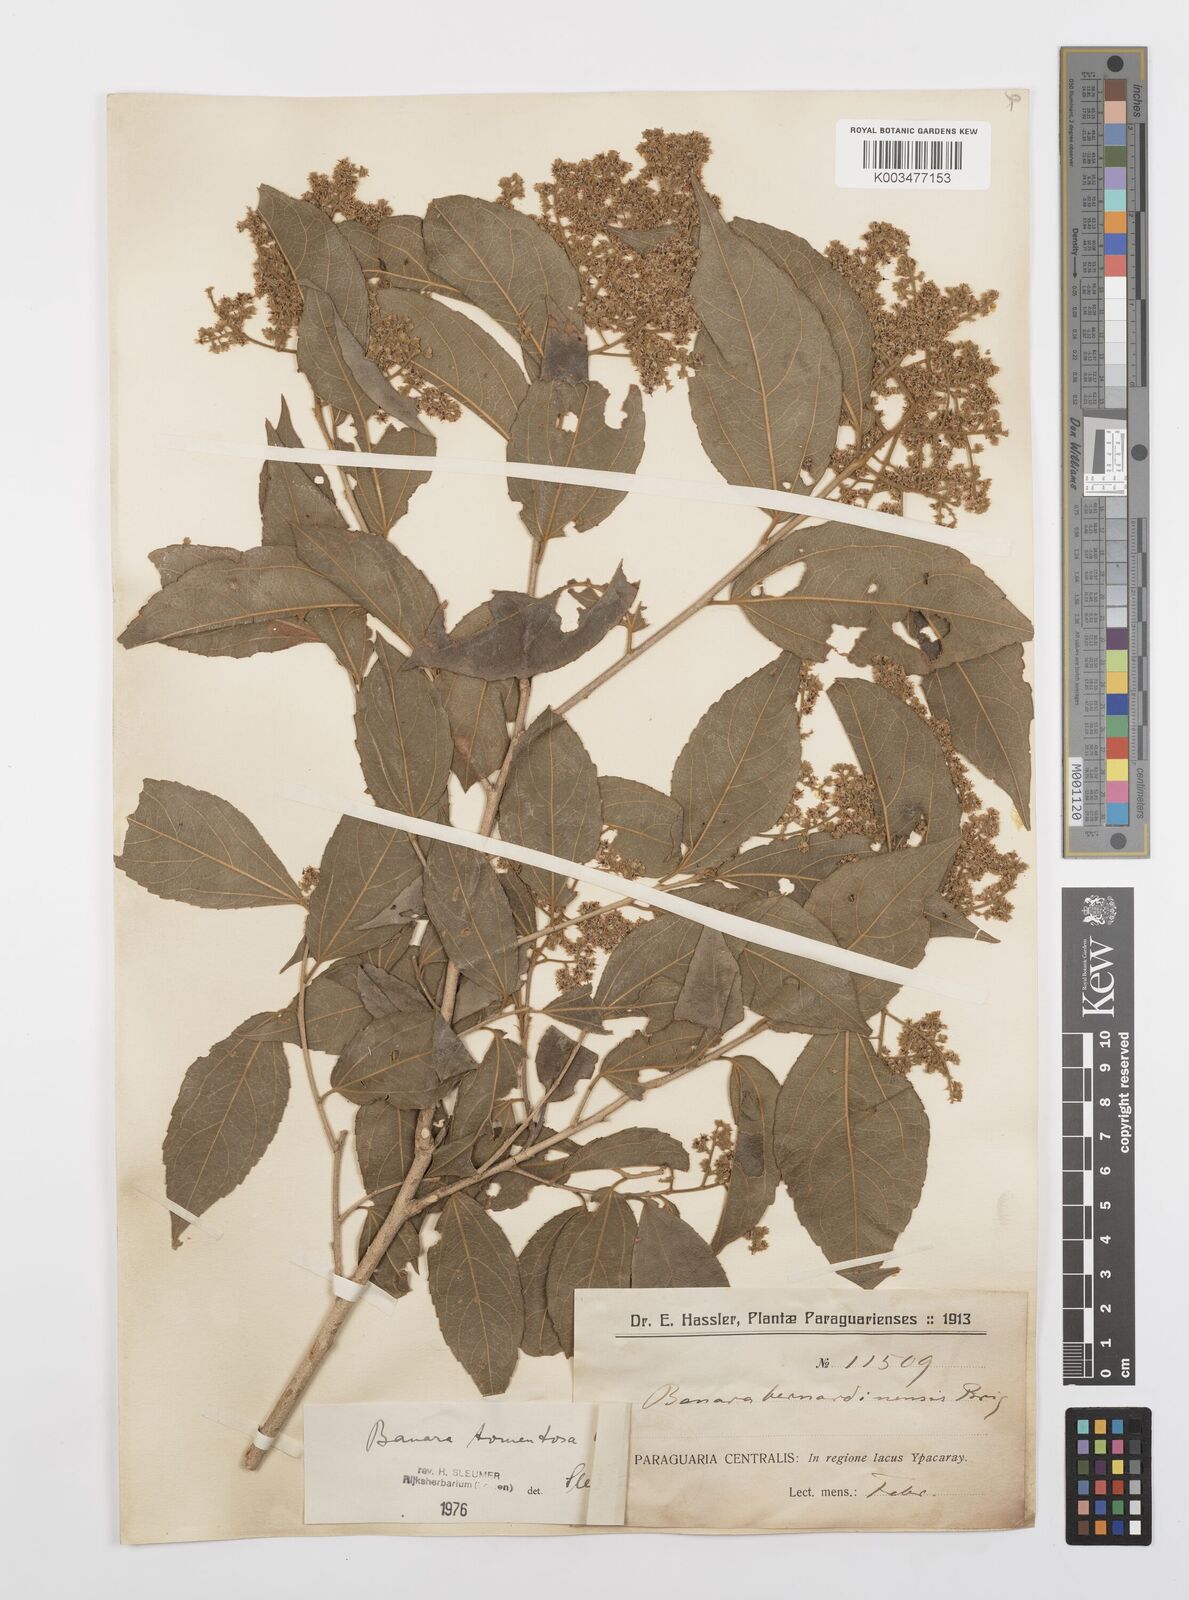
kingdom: Plantae
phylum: Tracheophyta
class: Magnoliopsida
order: Malpighiales
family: Salicaceae
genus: Banara
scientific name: Banara tomentosa
